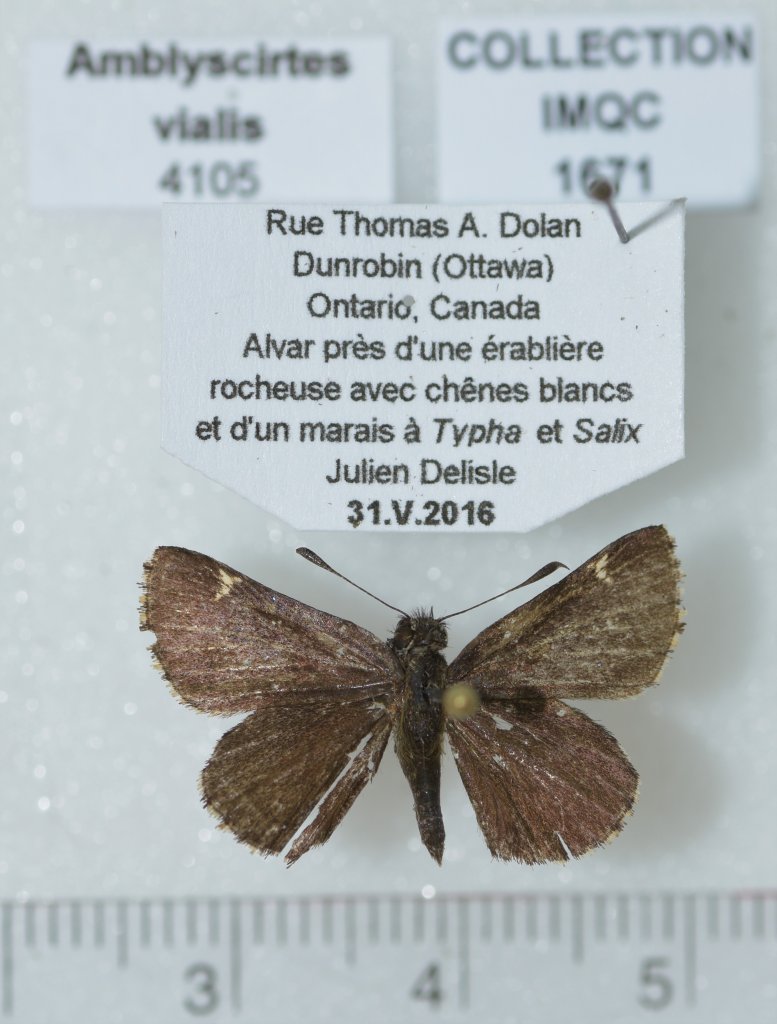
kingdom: Animalia
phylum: Arthropoda
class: Insecta
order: Lepidoptera
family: Hesperiidae
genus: Mastor
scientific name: Mastor vialis
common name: Common Roadside-Skipper
